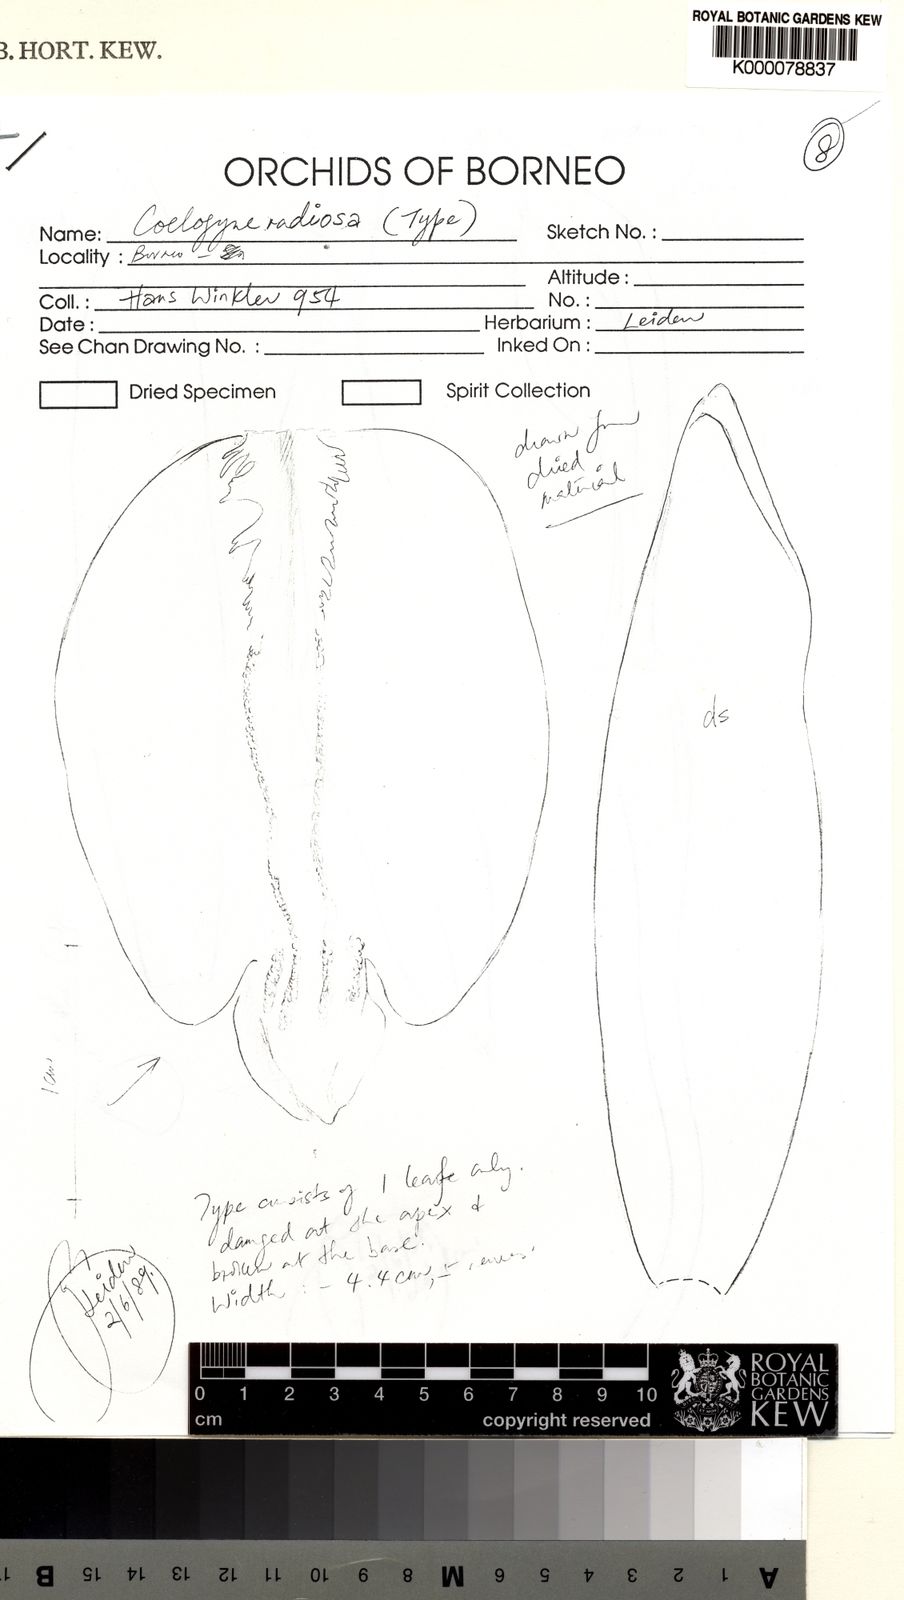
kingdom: Plantae
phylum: Tracheophyta
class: Liliopsida
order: Asparagales
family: Orchidaceae
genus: Coelogyne
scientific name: Coelogyne hirtella
